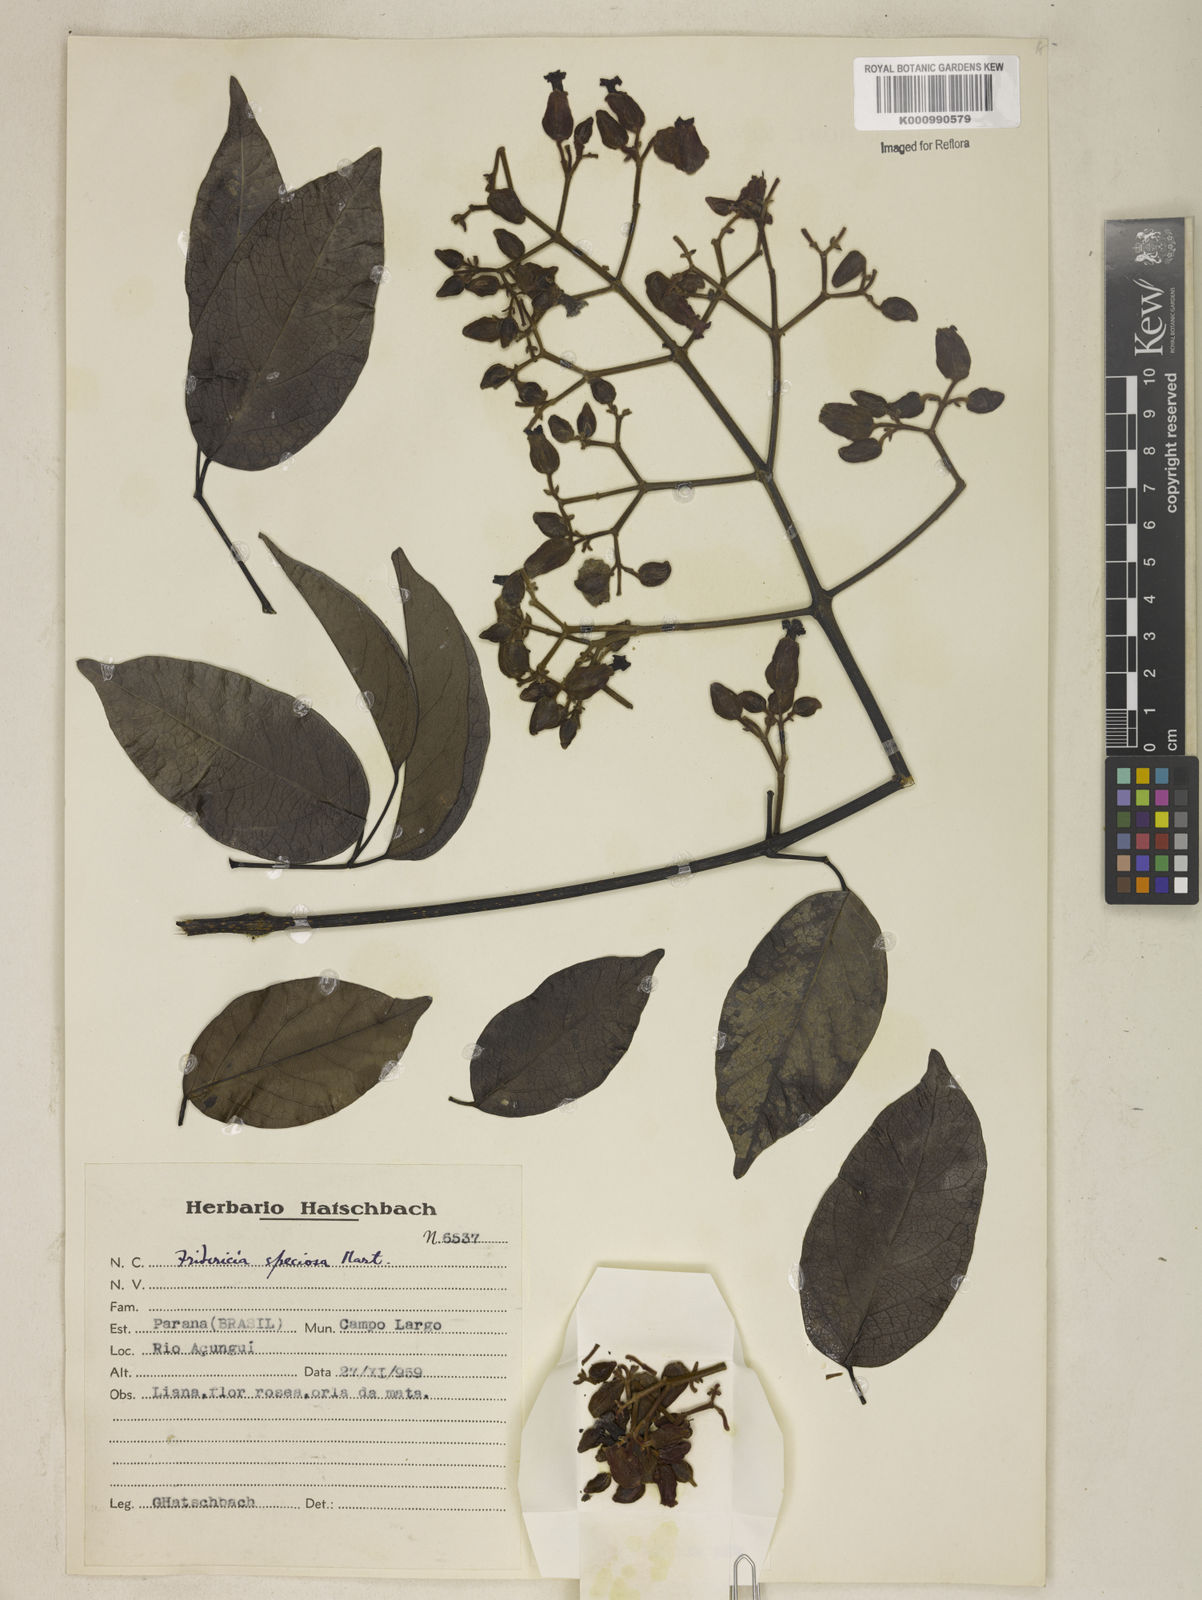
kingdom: Plantae
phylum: Tracheophyta
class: Magnoliopsida
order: Lamiales
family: Bignoniaceae
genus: Fridericia
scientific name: Fridericia speciosa
